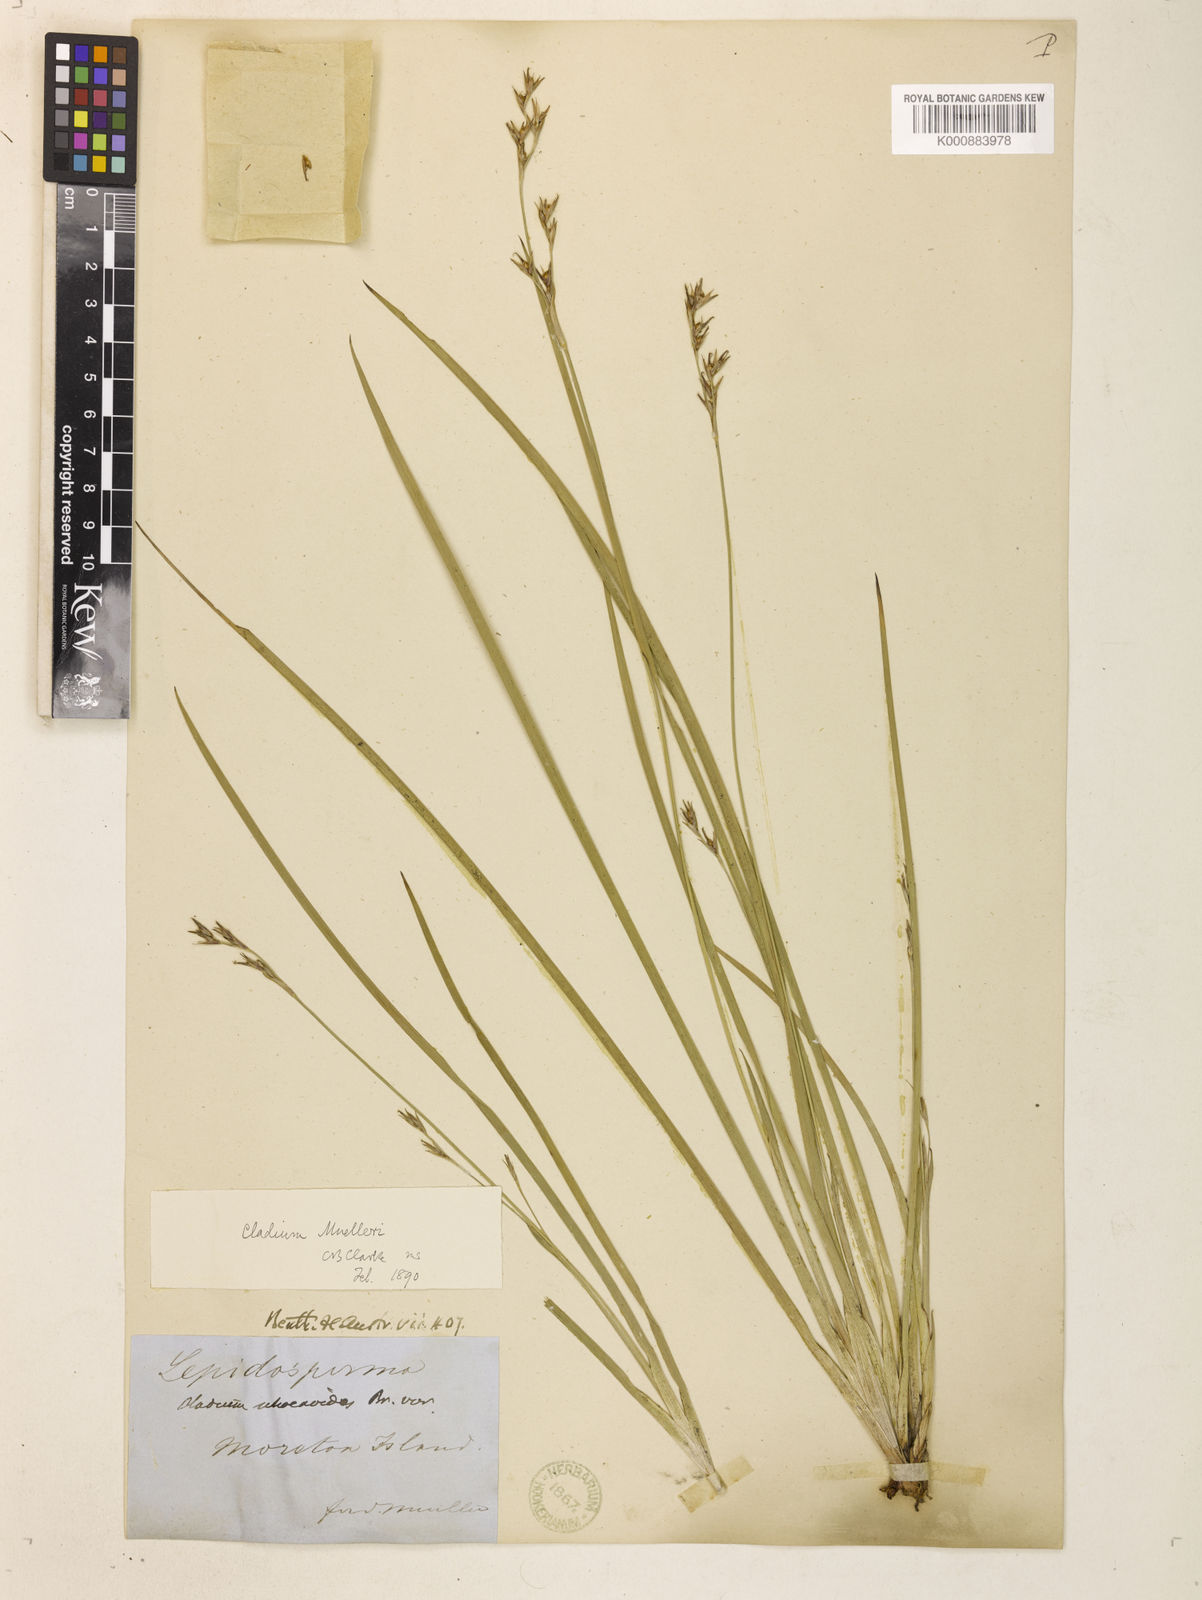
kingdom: Plantae
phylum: Tracheophyta
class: Liliopsida
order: Poales
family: Cyperaceae
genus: Machaerina
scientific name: Machaerina muelleri
